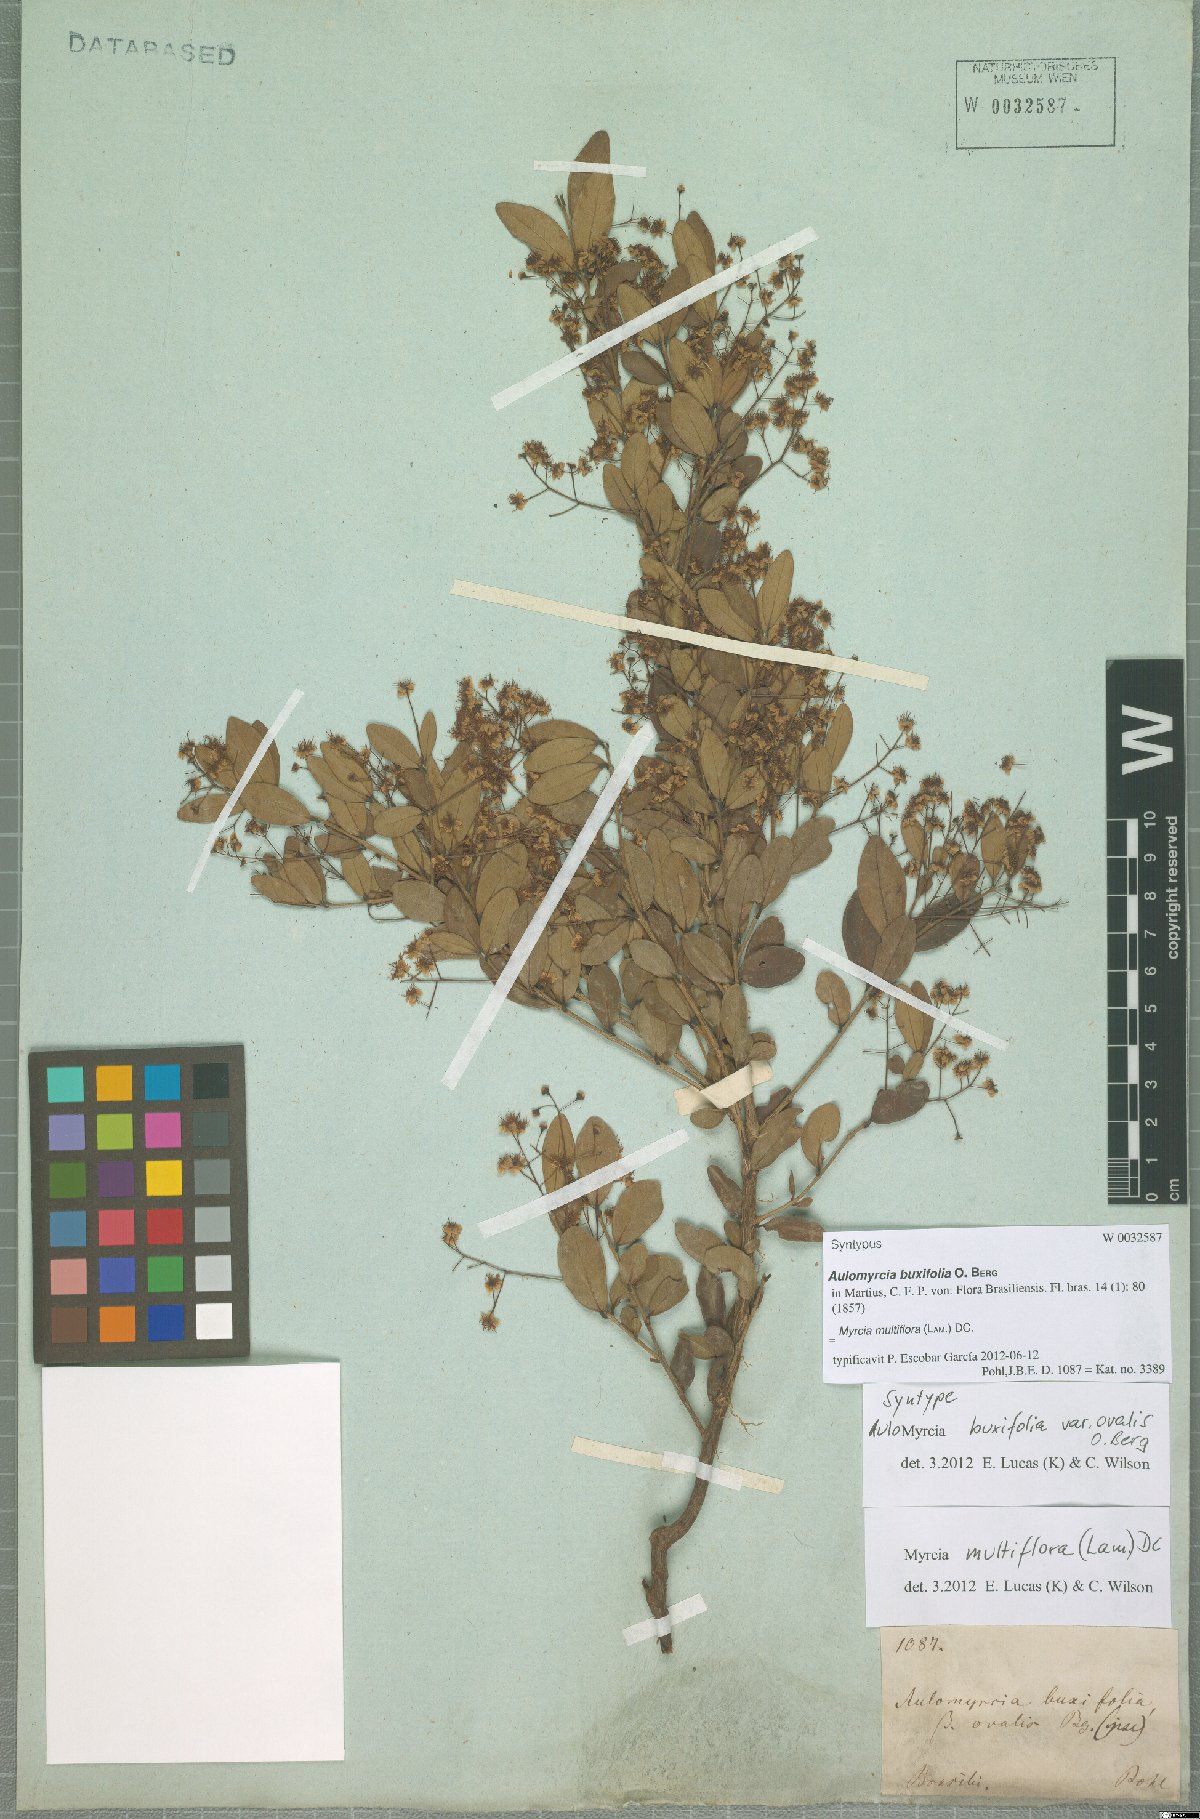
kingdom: Plantae
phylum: Tracheophyta
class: Magnoliopsida
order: Myrtales
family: Myrtaceae
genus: Myrcia
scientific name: Myrcia multiflora
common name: Pedra hume
